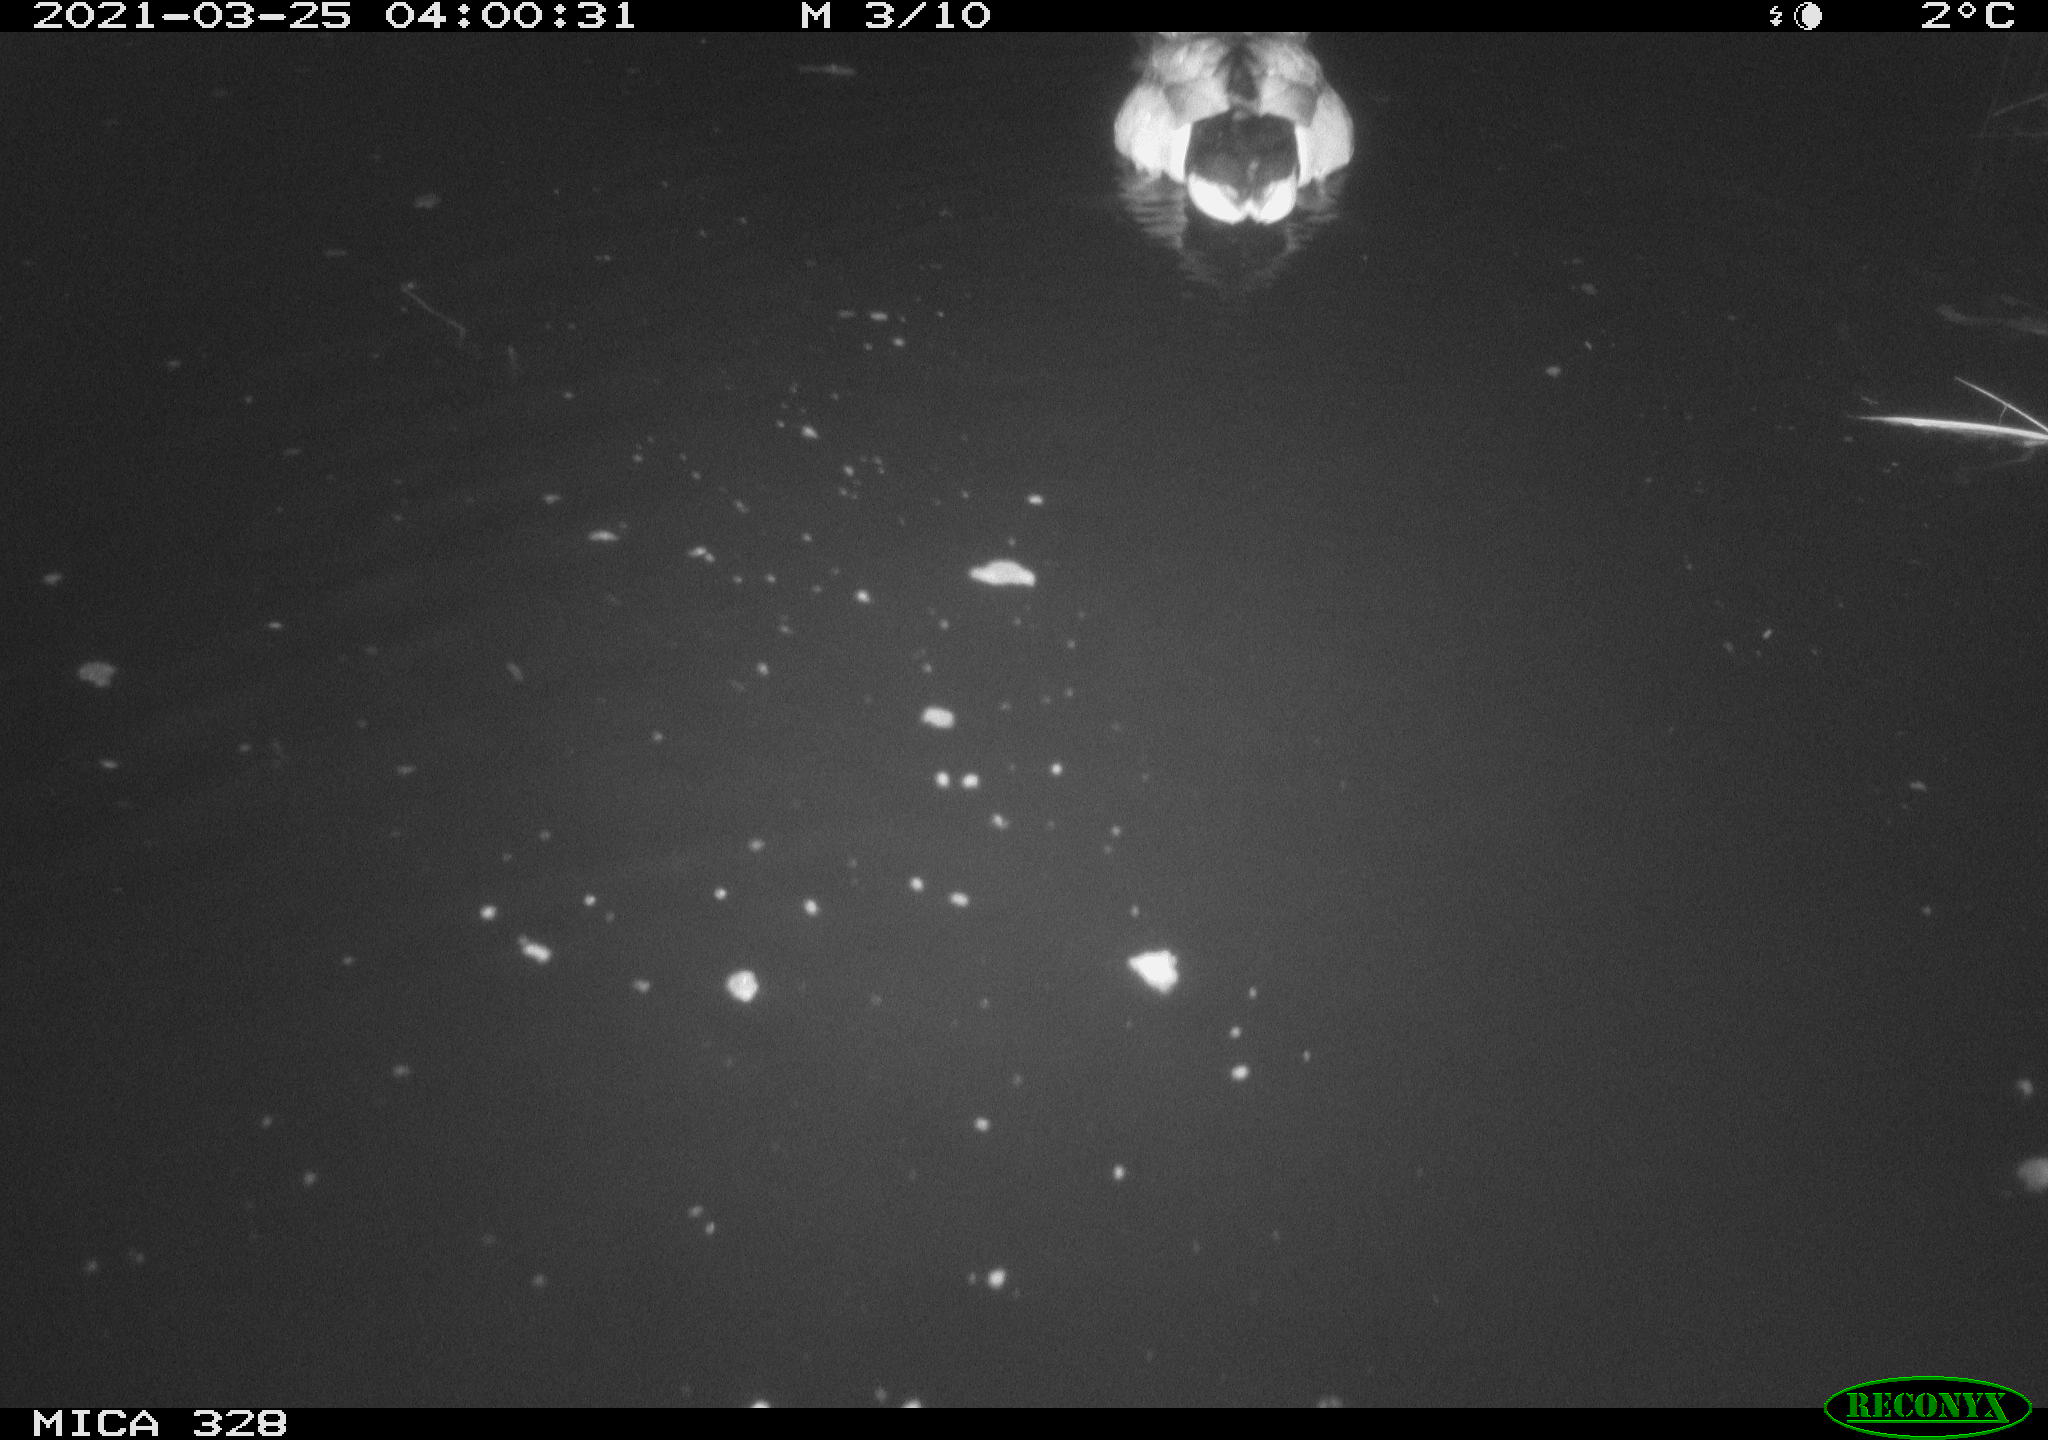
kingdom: Animalia
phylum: Chordata
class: Aves
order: Anseriformes
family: Anatidae
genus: Anas
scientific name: Anas platyrhynchos
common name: Mallard
